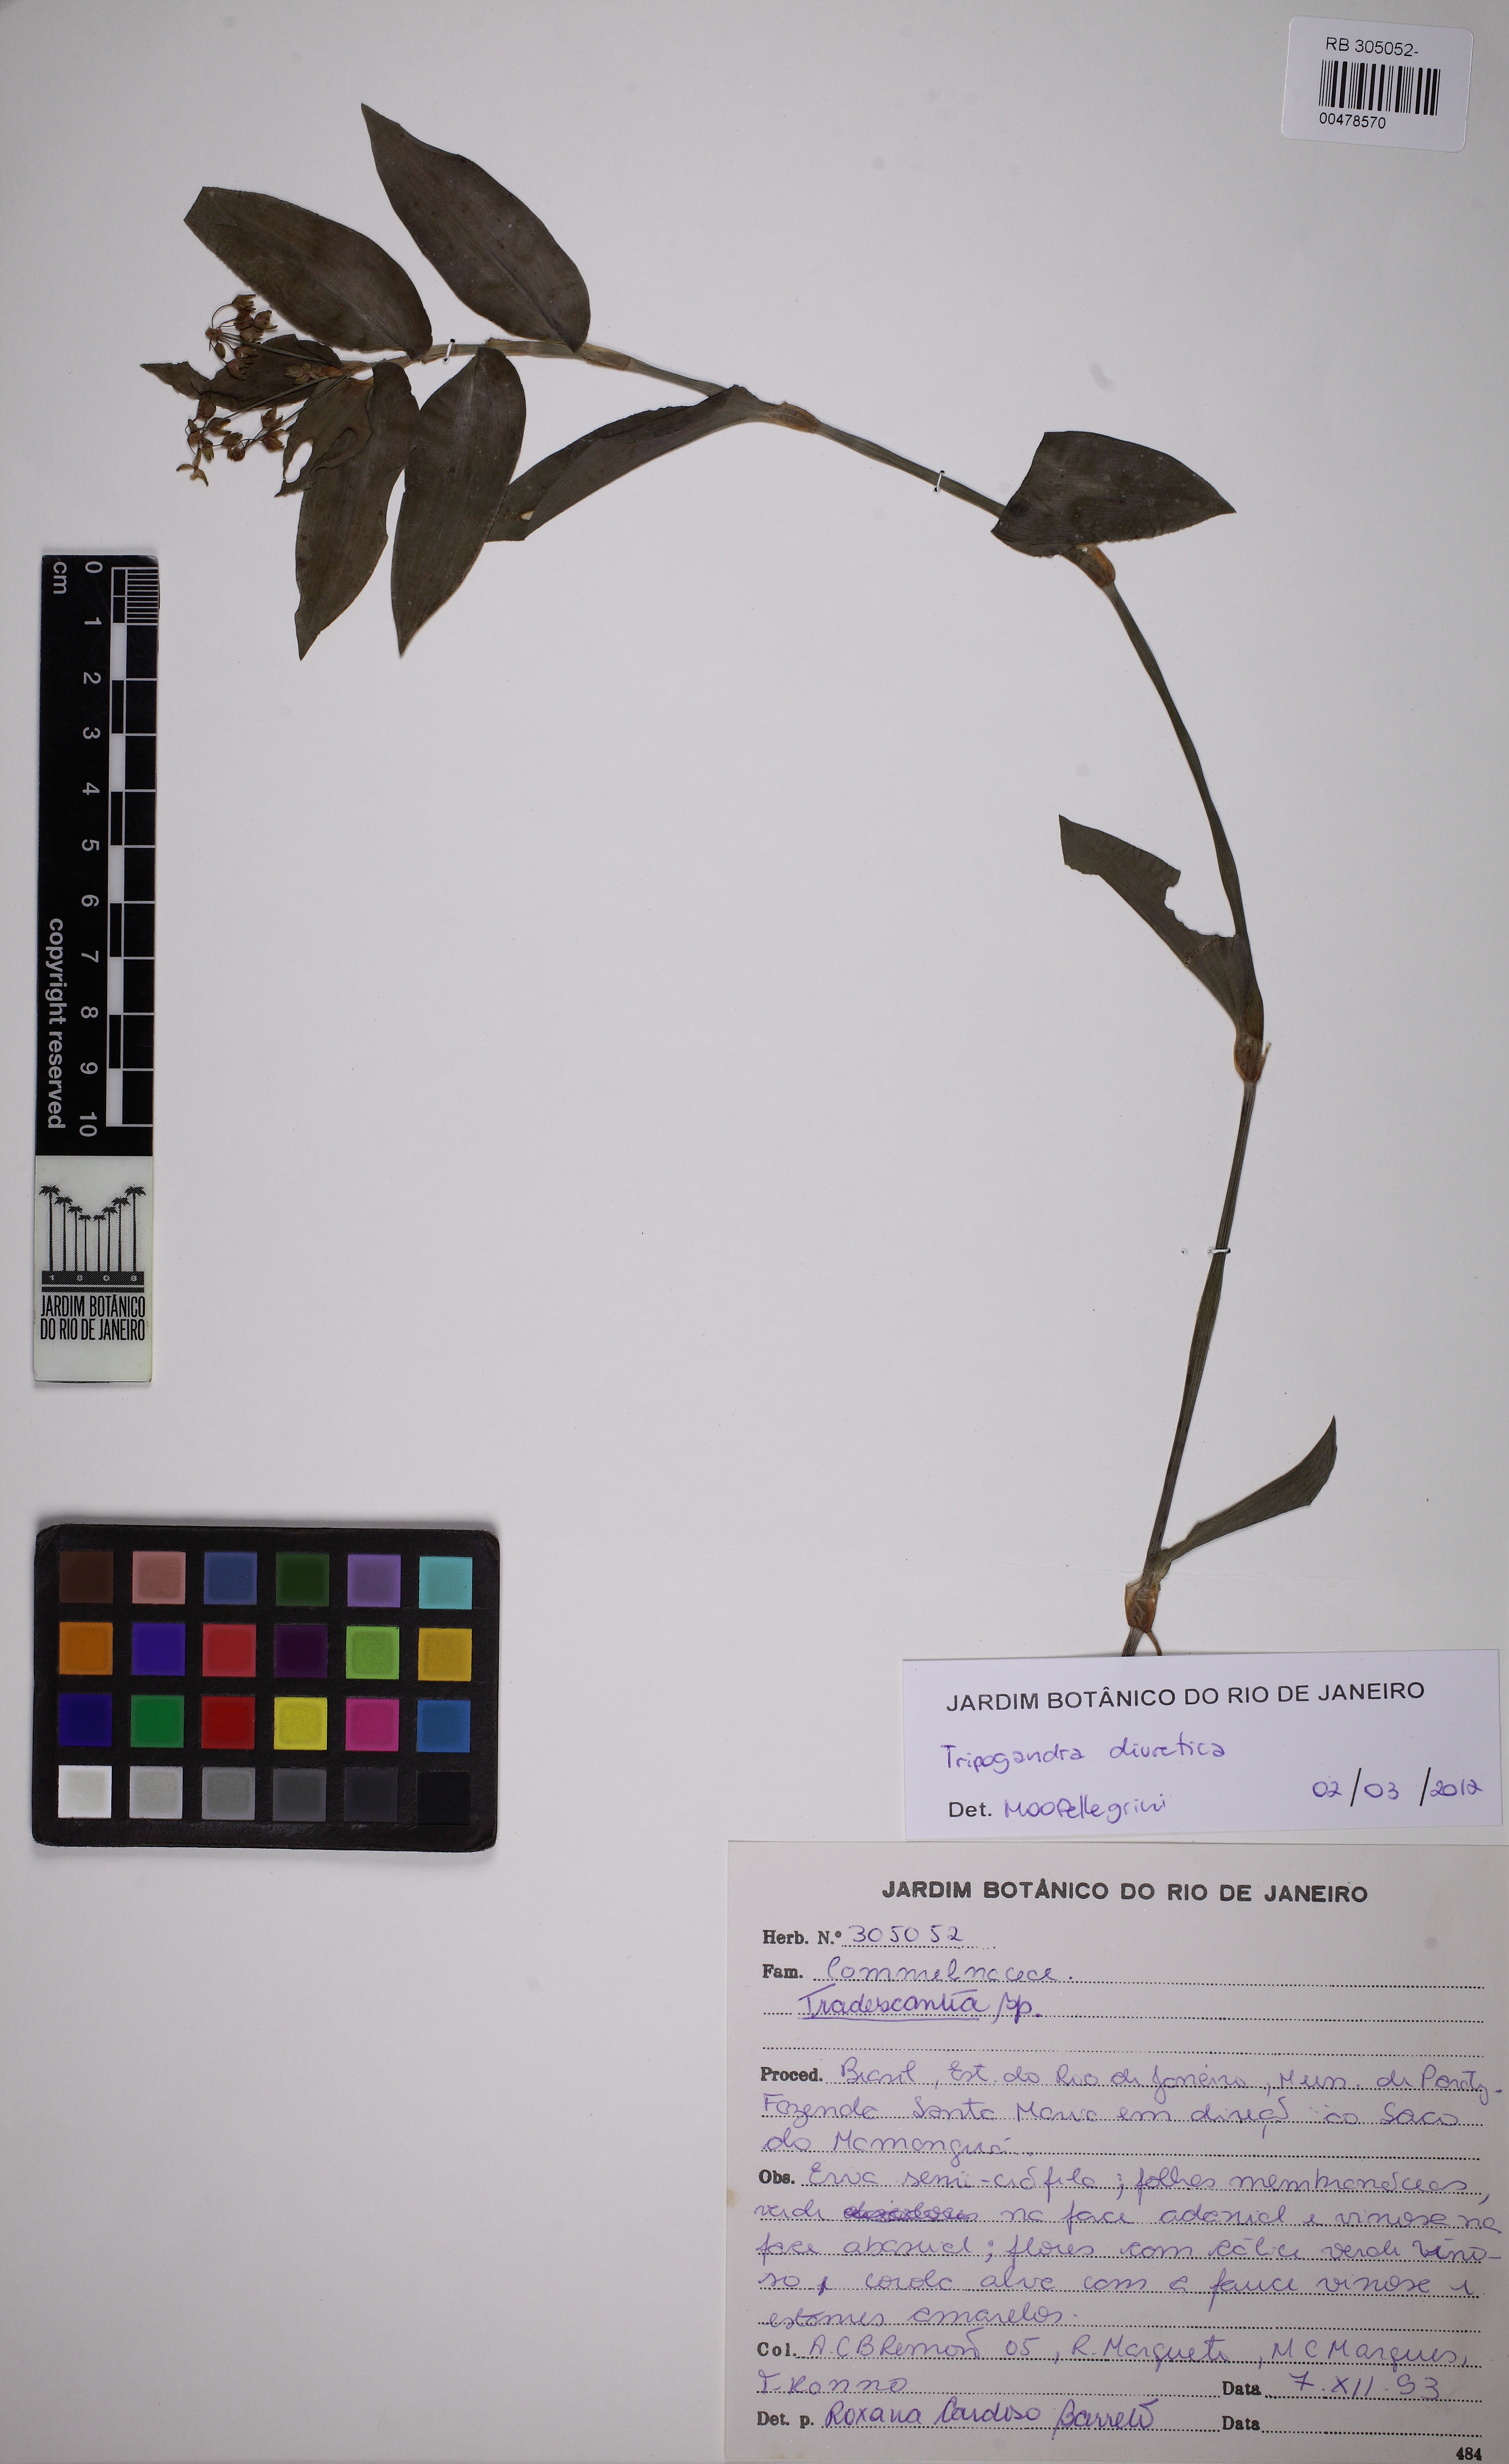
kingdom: Plantae
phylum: Tracheophyta
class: Liliopsida
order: Commelinales
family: Commelinaceae
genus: Callisia
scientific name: Callisia diuretica
